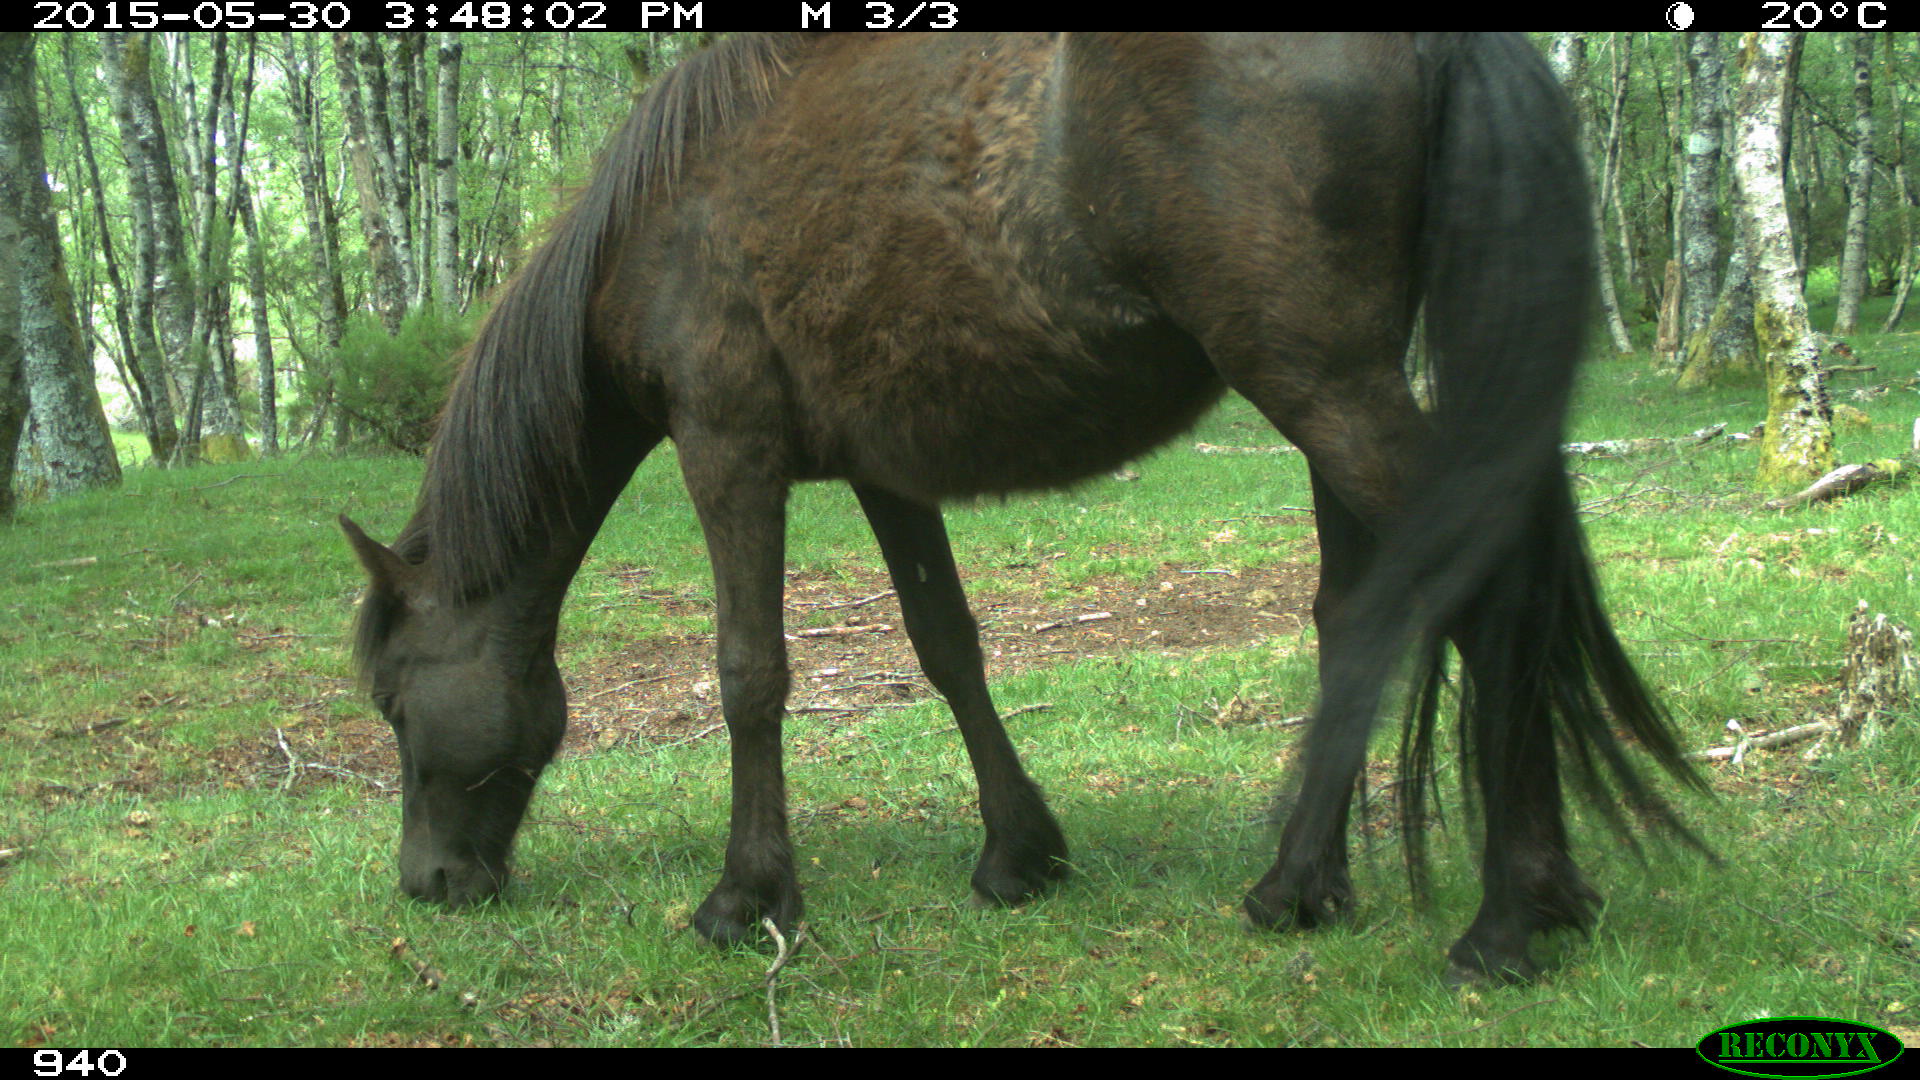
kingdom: Animalia
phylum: Chordata
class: Mammalia
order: Perissodactyla
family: Equidae
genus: Equus
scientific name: Equus caballus
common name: Horse
